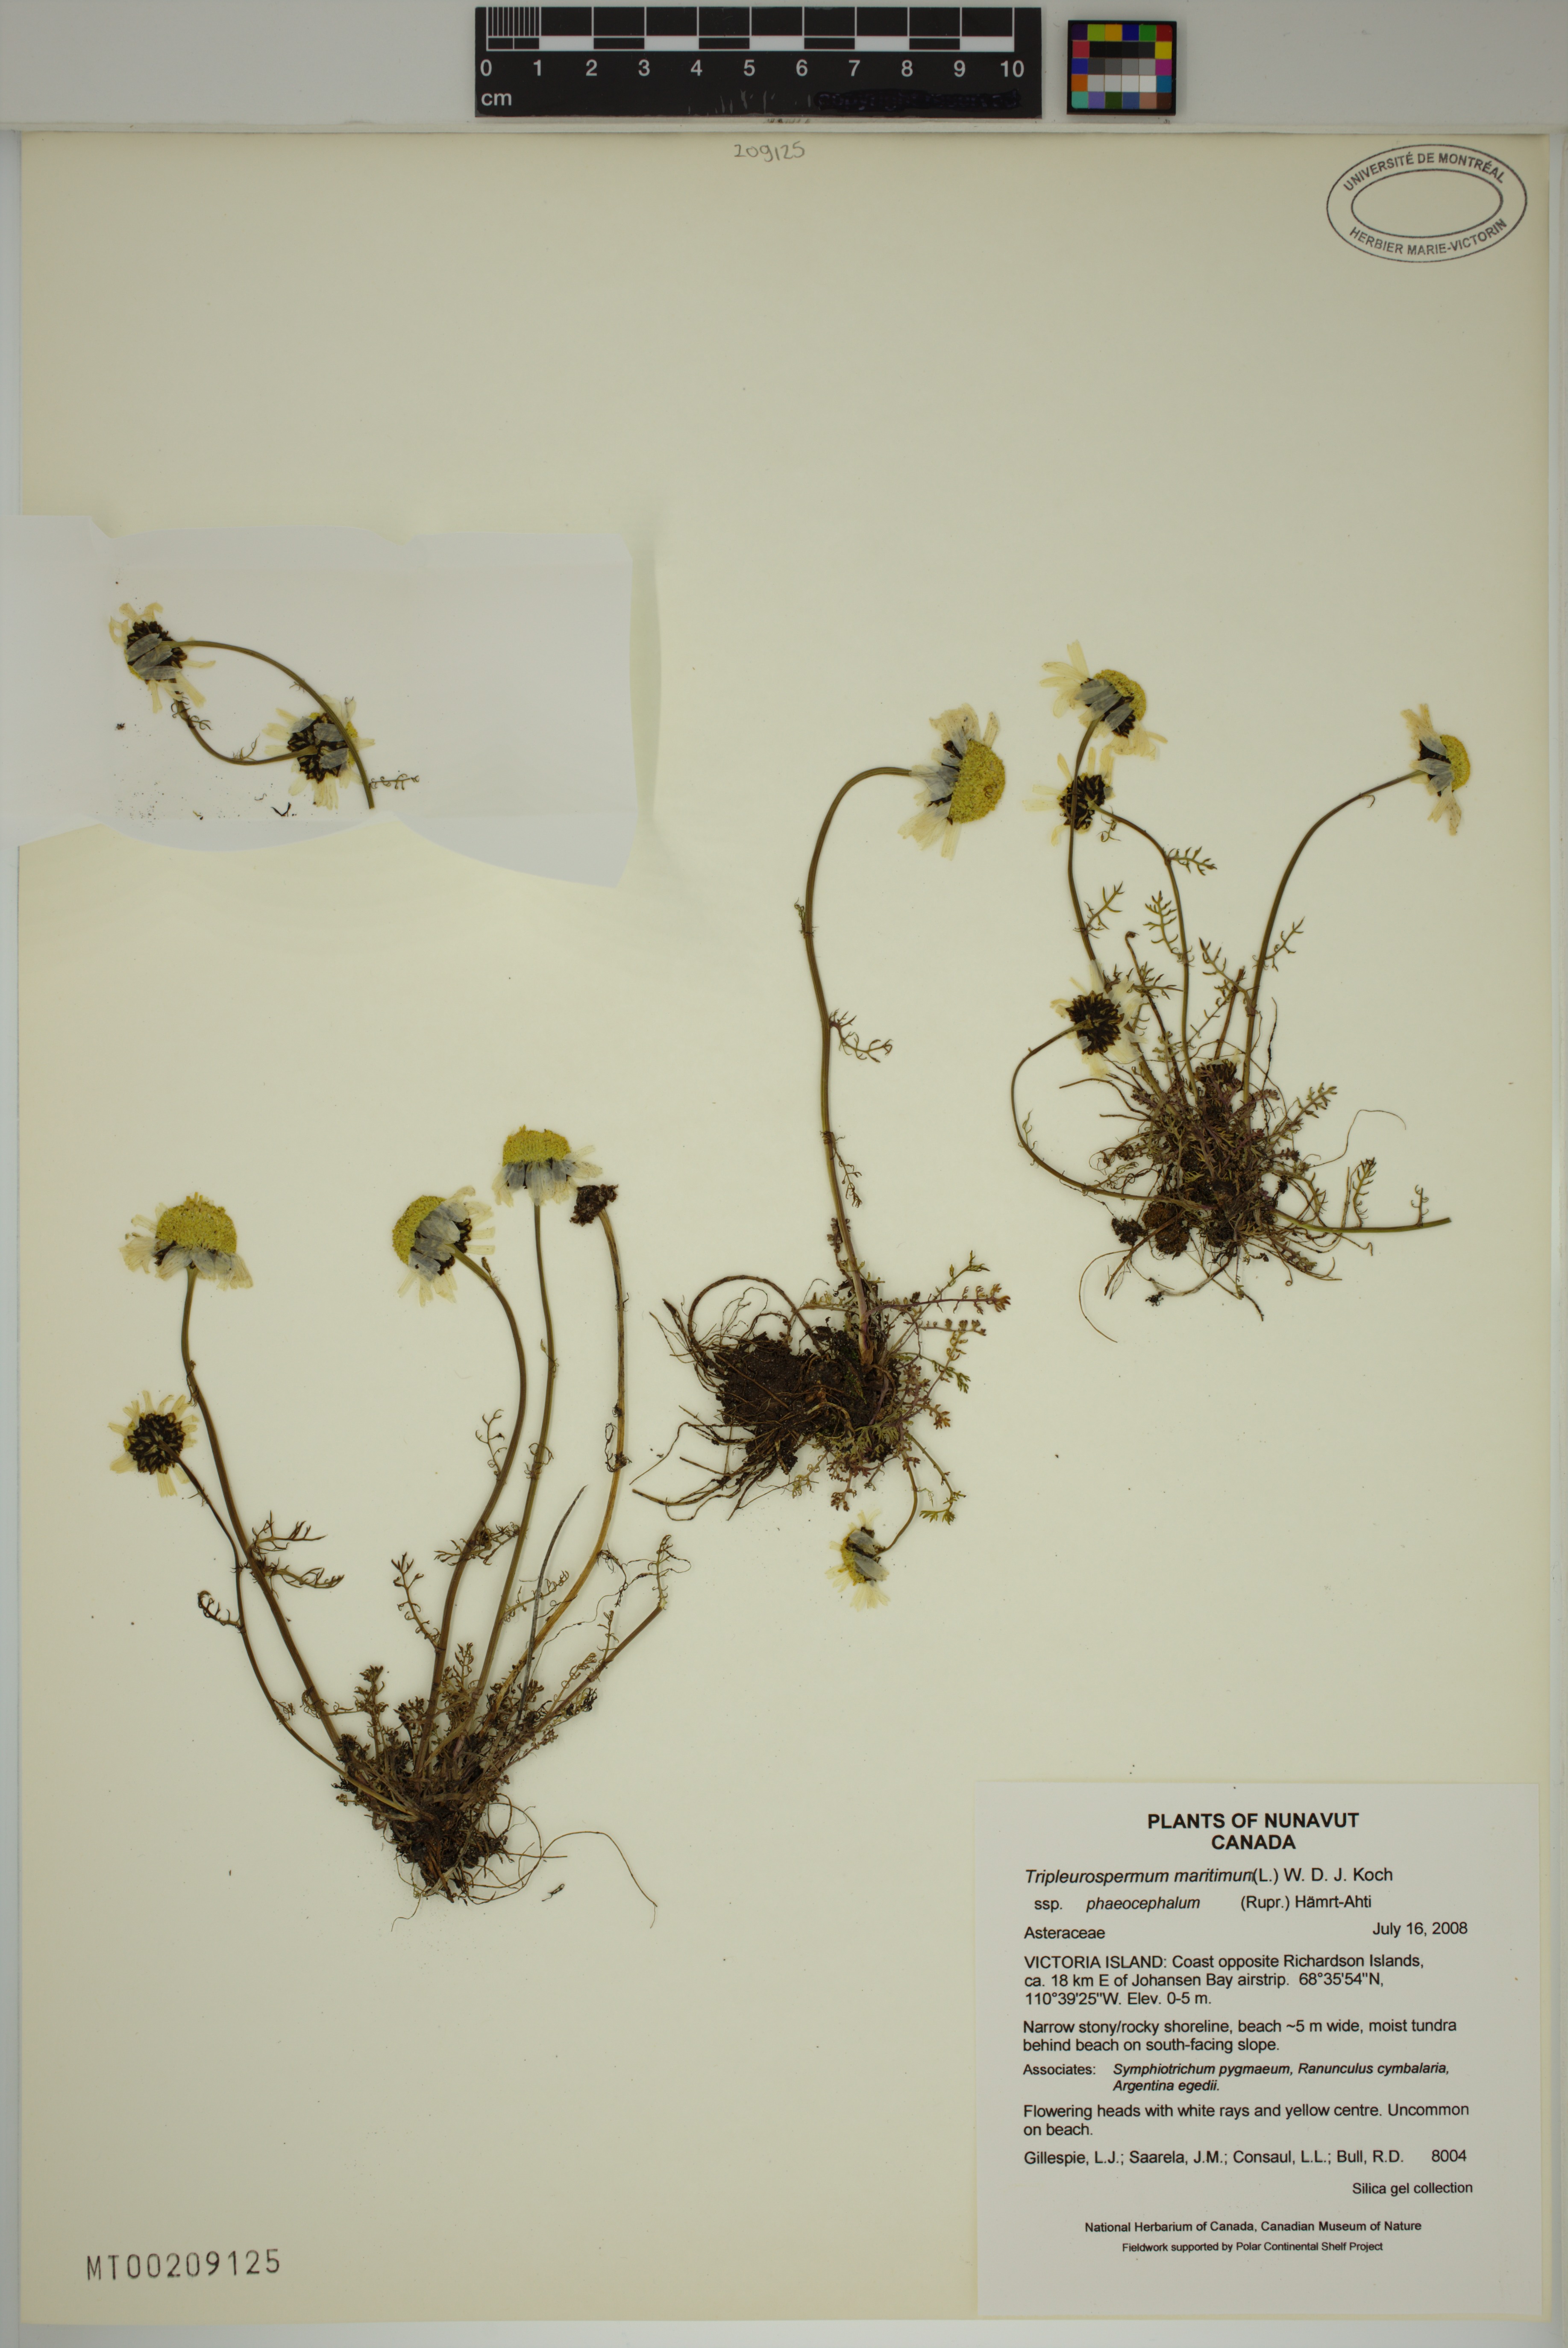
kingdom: Plantae
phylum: Tracheophyta
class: Magnoliopsida
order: Asterales
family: Asteraceae
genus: Tripleurospermum
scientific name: Tripleurospermum hookeri
